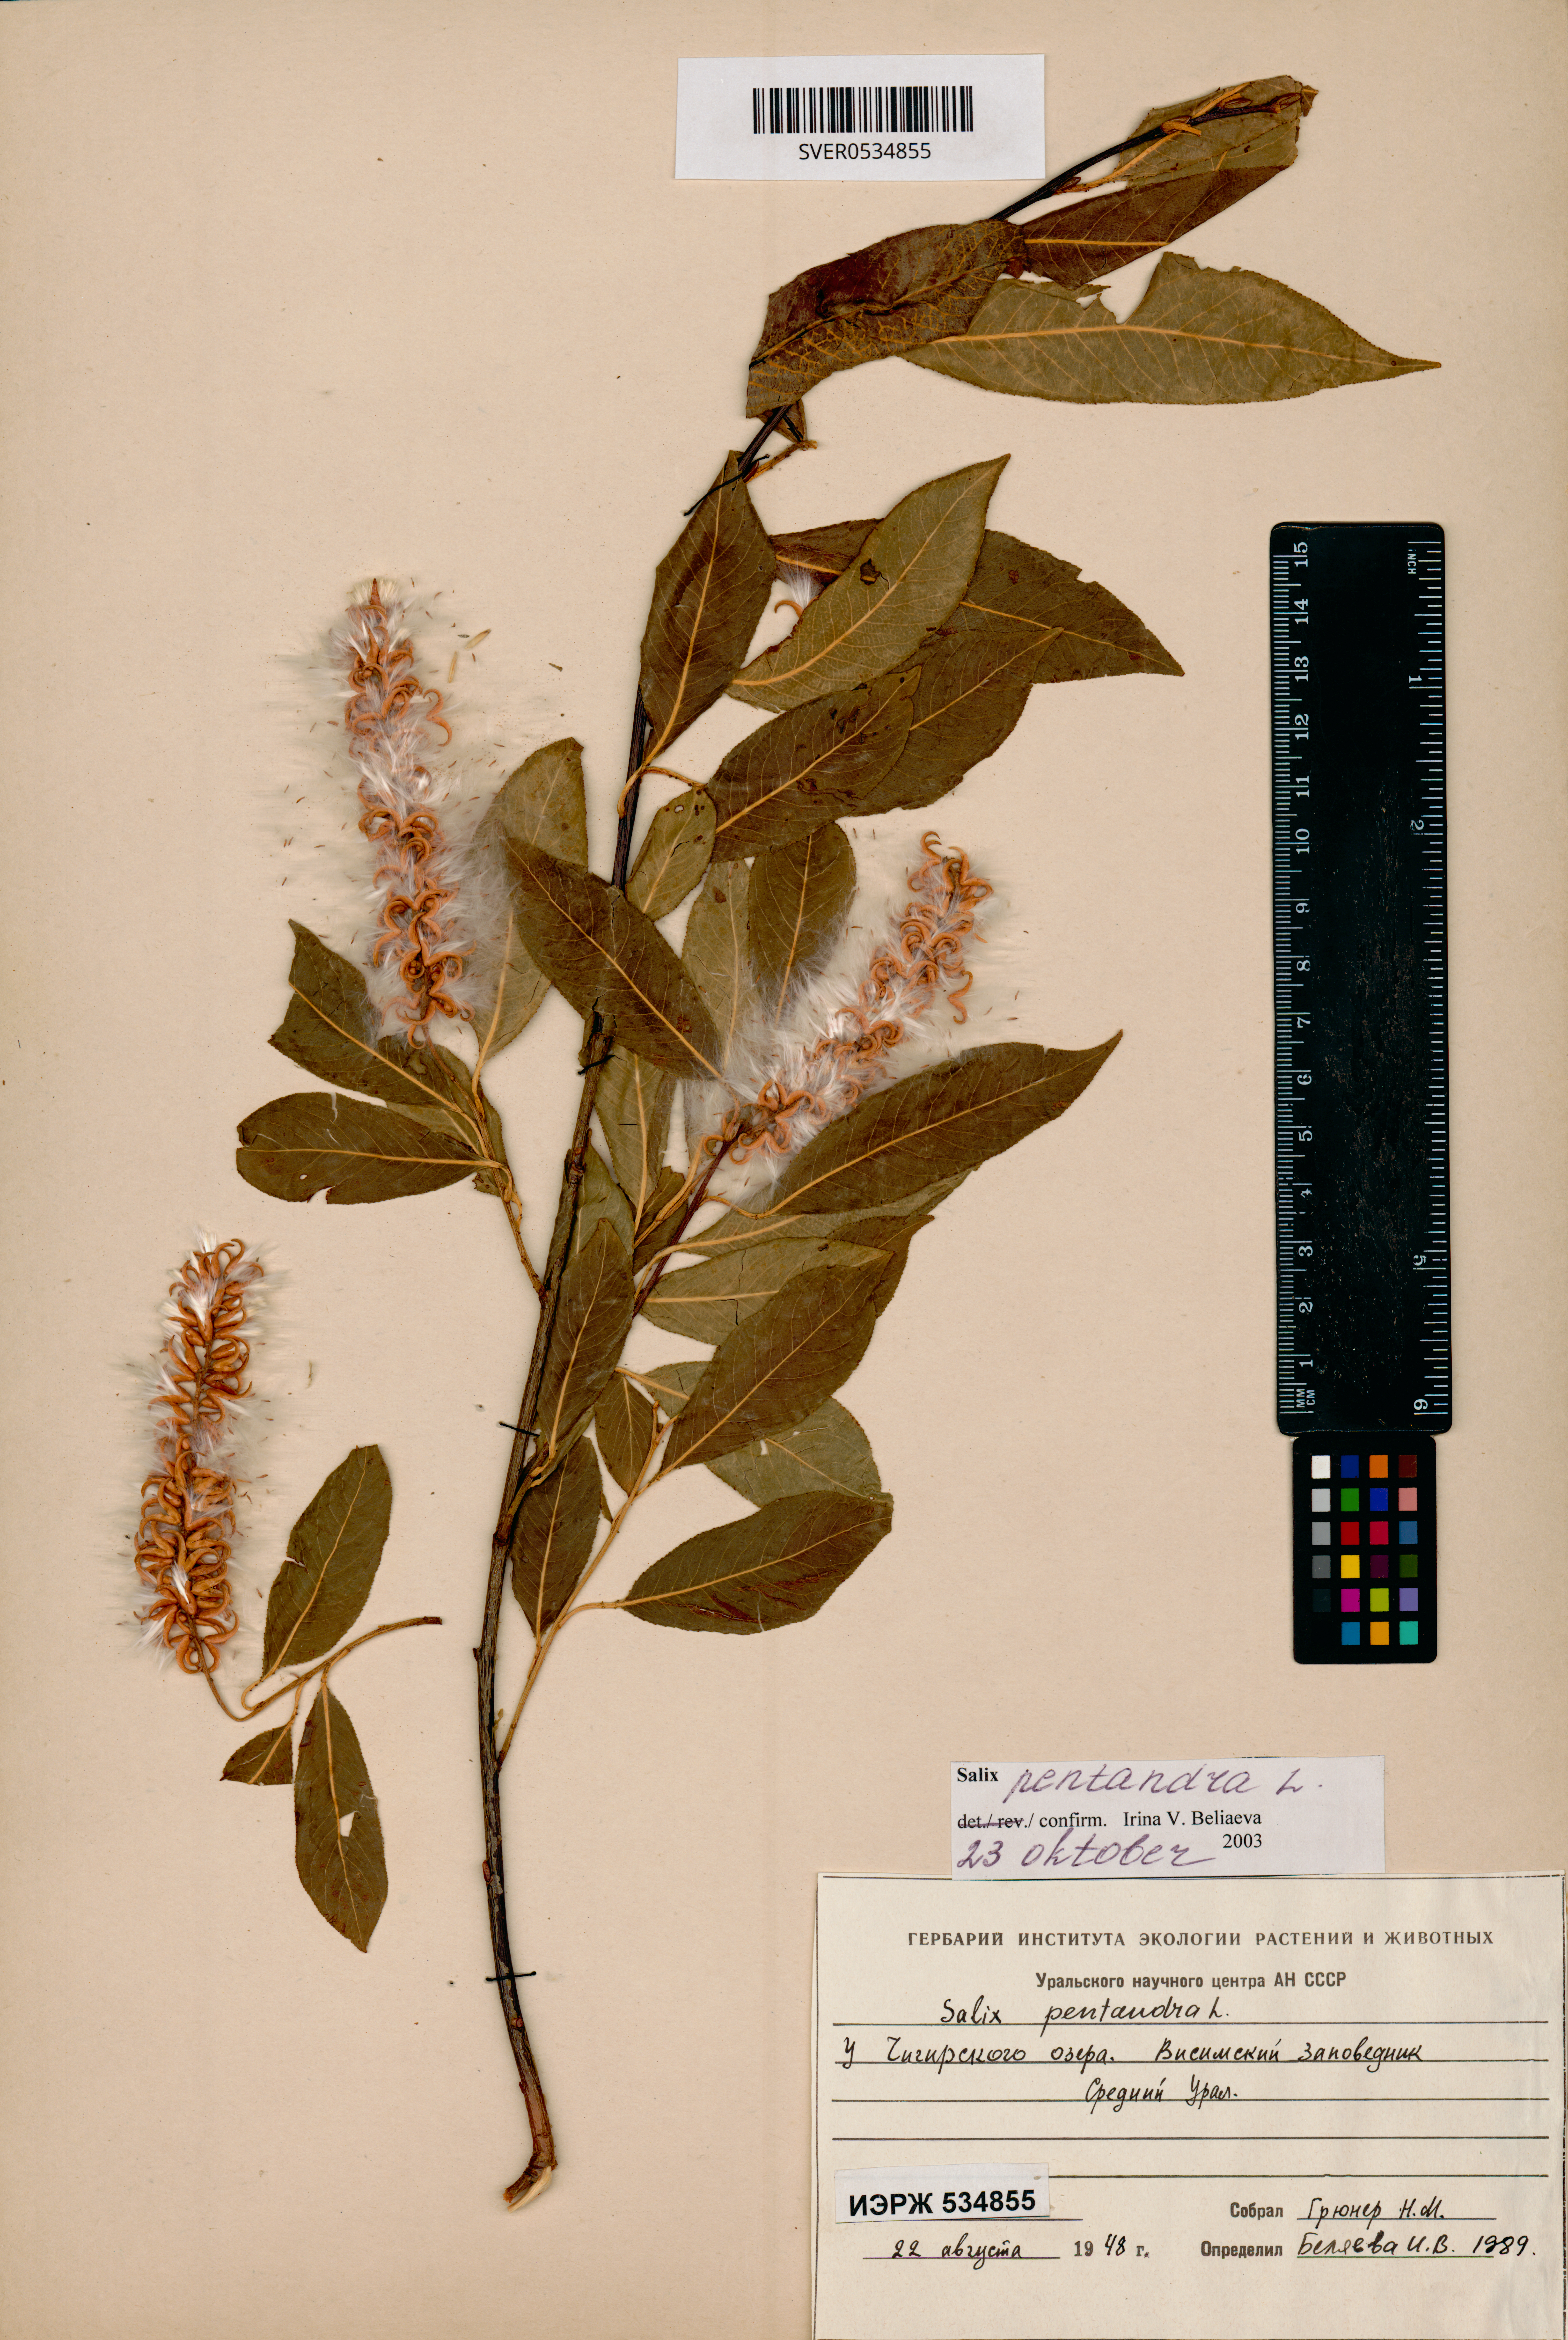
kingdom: Plantae
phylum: Tracheophyta
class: Magnoliopsida
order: Malpighiales
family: Salicaceae
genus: Salix
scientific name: Salix pentandra
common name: Bay willow
